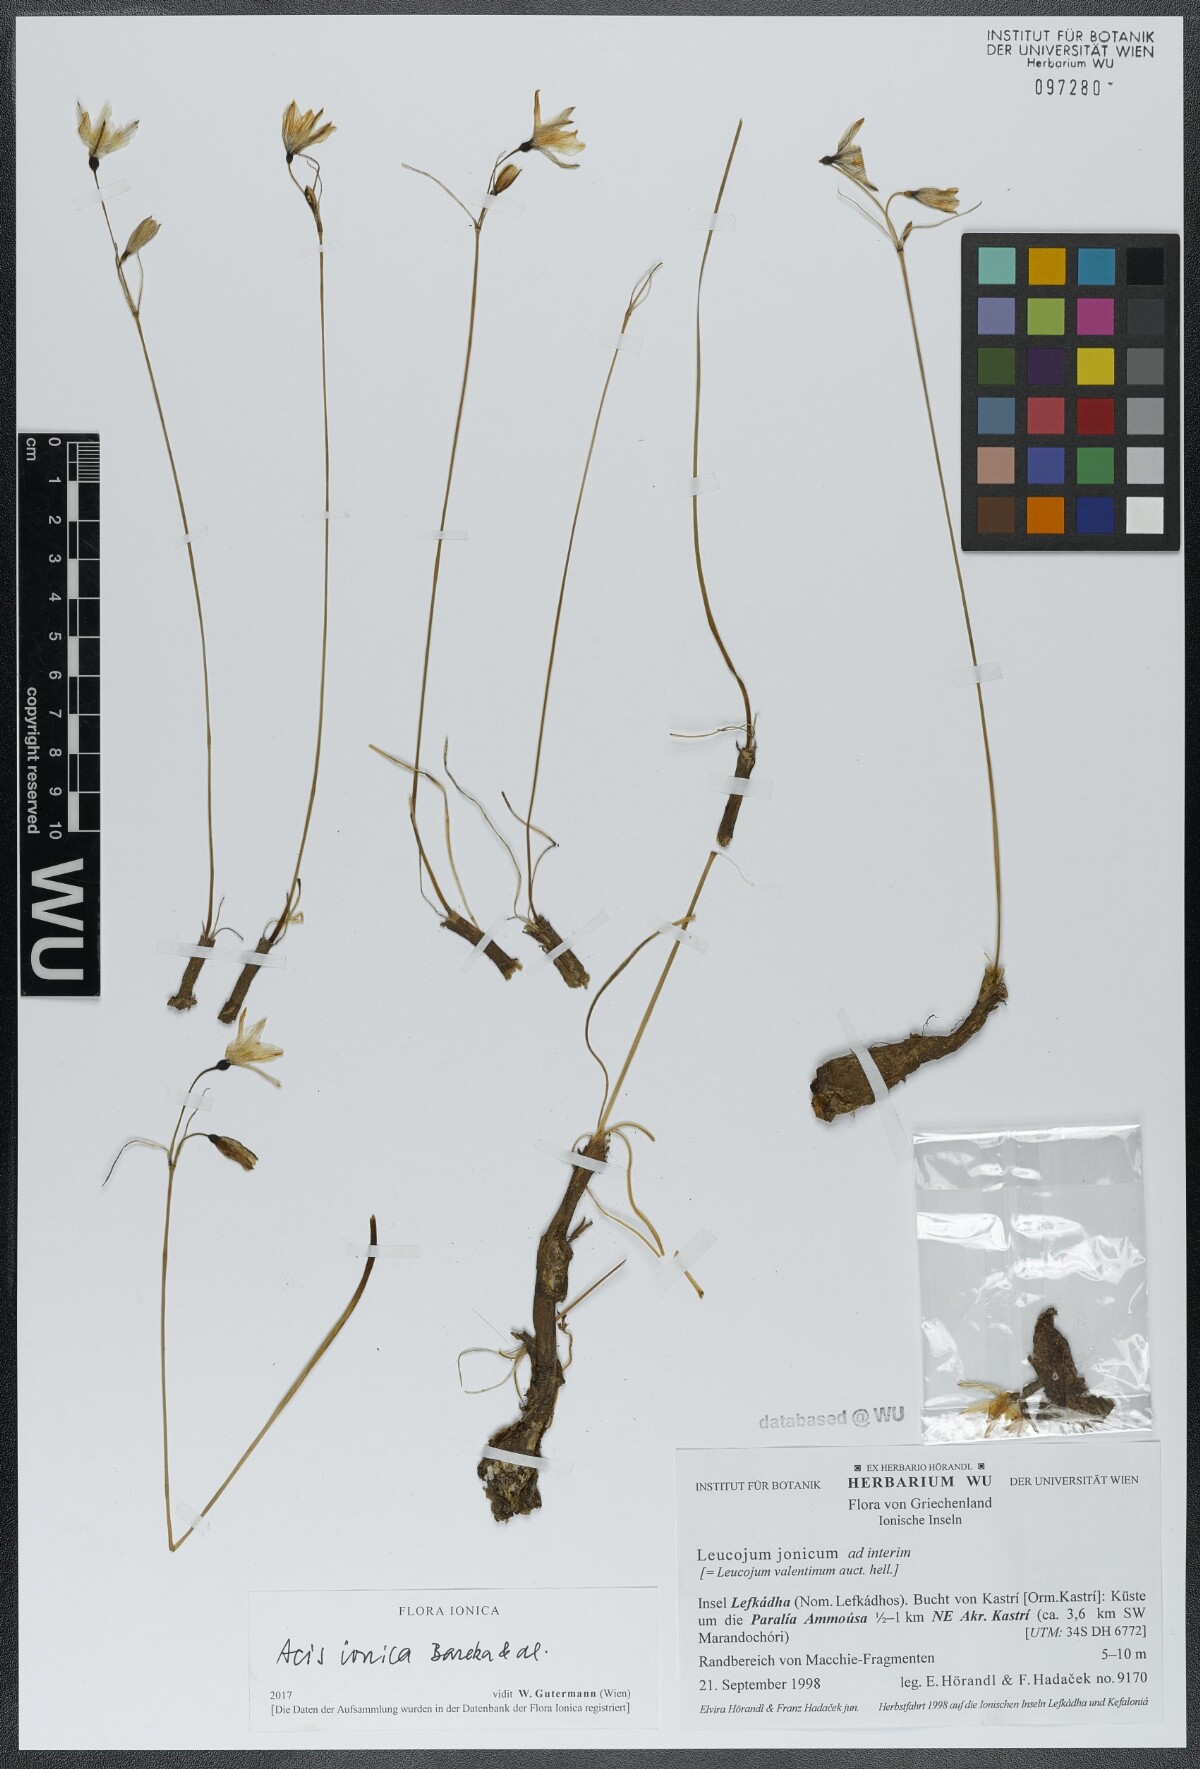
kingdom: Plantae
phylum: Tracheophyta
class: Liliopsida
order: Asparagales
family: Amaryllidaceae
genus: Acis
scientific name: Acis ionica
